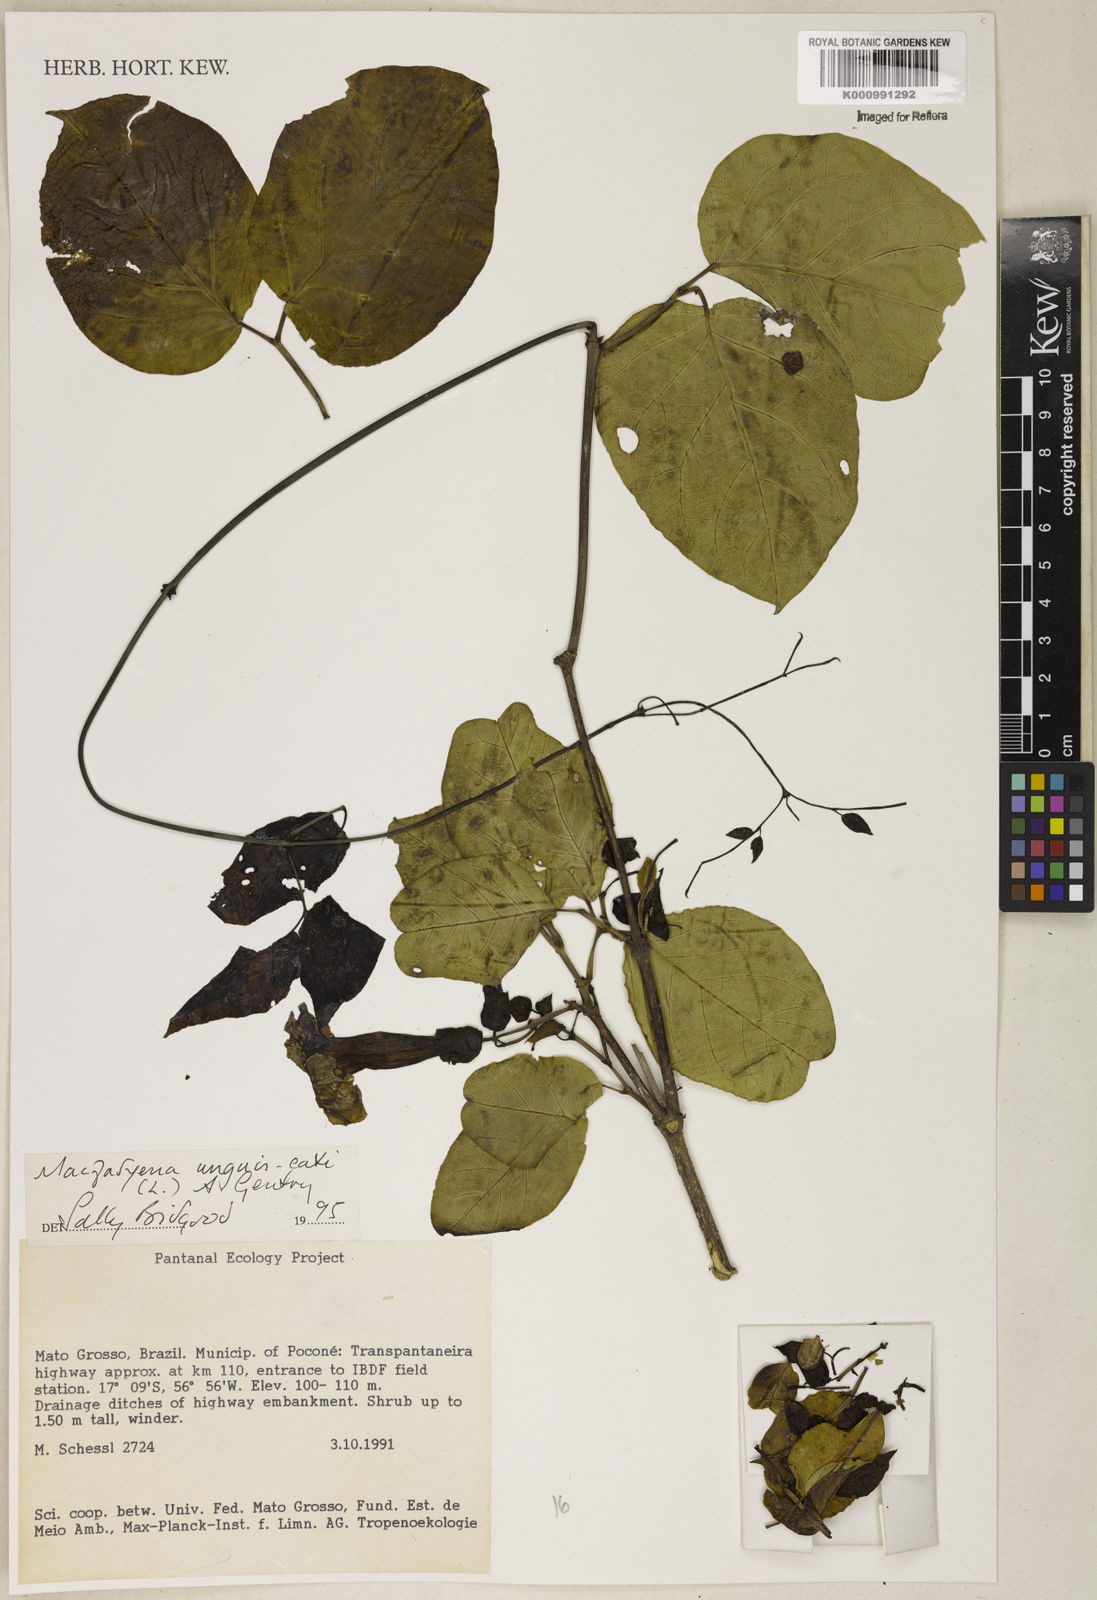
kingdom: Plantae
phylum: Tracheophyta
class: Magnoliopsida
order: Lamiales
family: Bignoniaceae
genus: Dolichandra
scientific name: Dolichandra unguis-cati
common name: Catclaw vine
